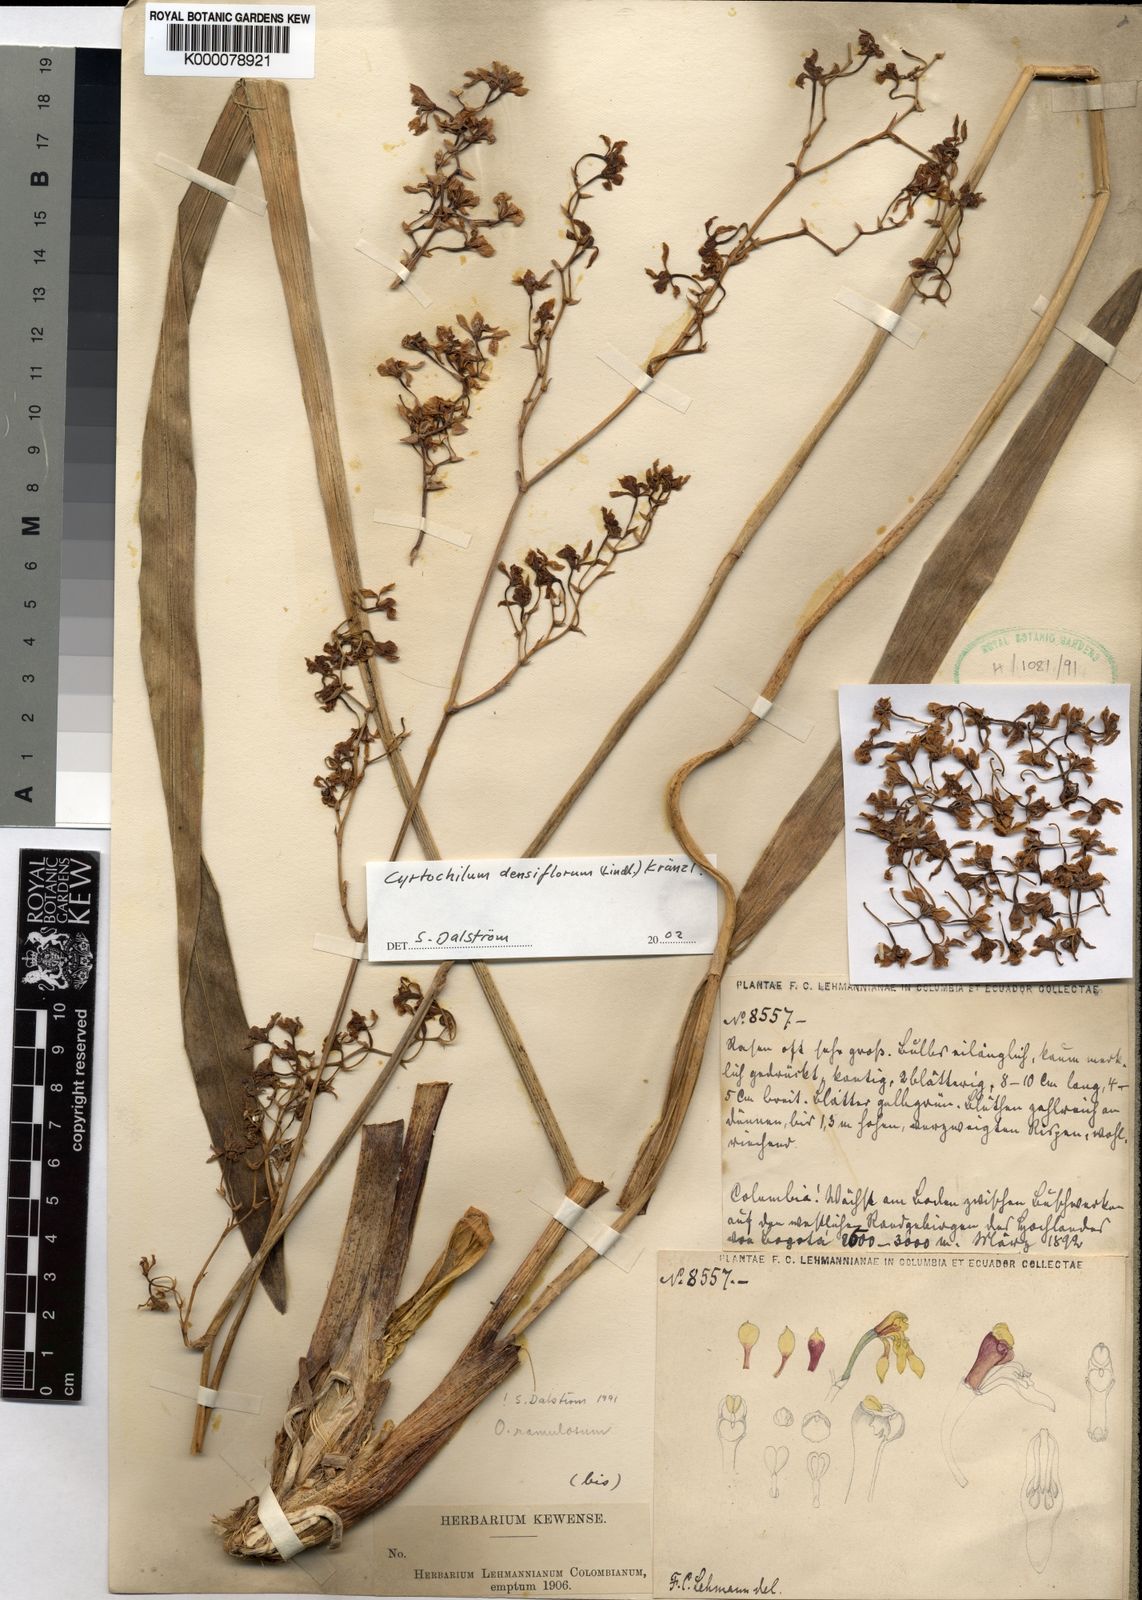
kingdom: Plantae
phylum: Tracheophyta
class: Liliopsida
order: Asparagales
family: Orchidaceae
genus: Cyrtochilum
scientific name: Cyrtochilum densiflorum
